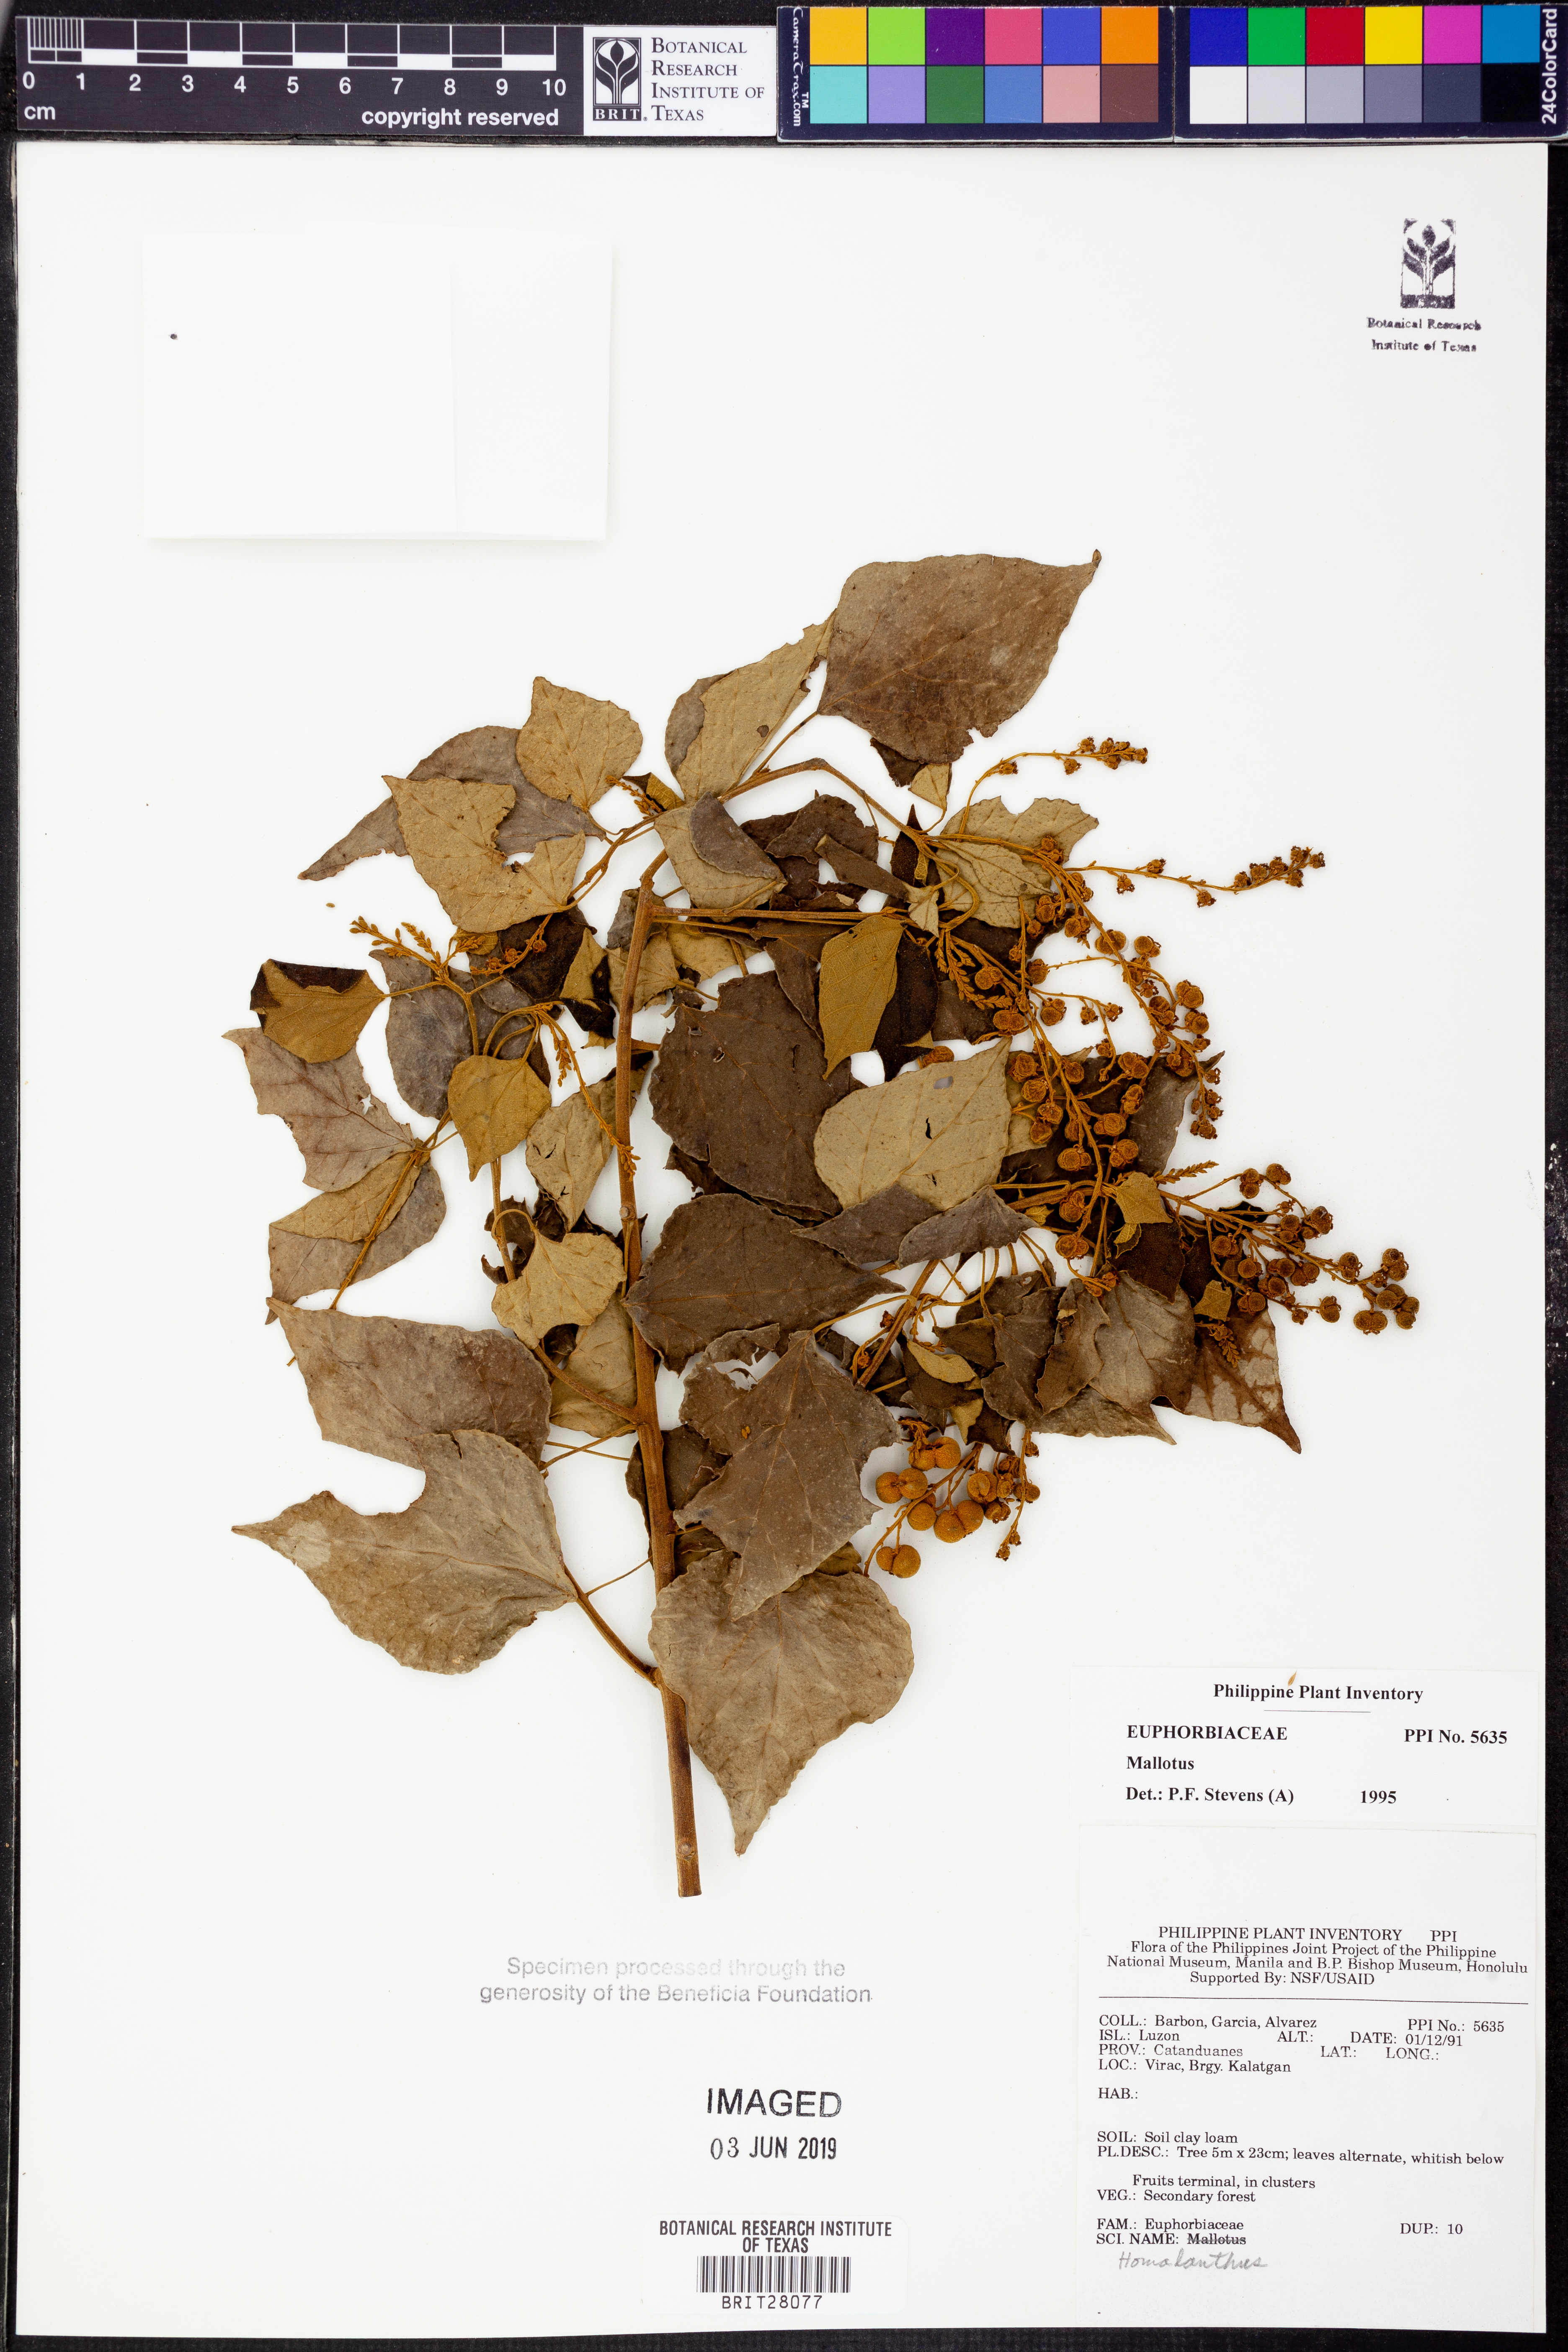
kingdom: Plantae
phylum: Tracheophyta
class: Magnoliopsida
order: Malpighiales
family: Euphorbiaceae
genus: Mallotus
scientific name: Mallotus
